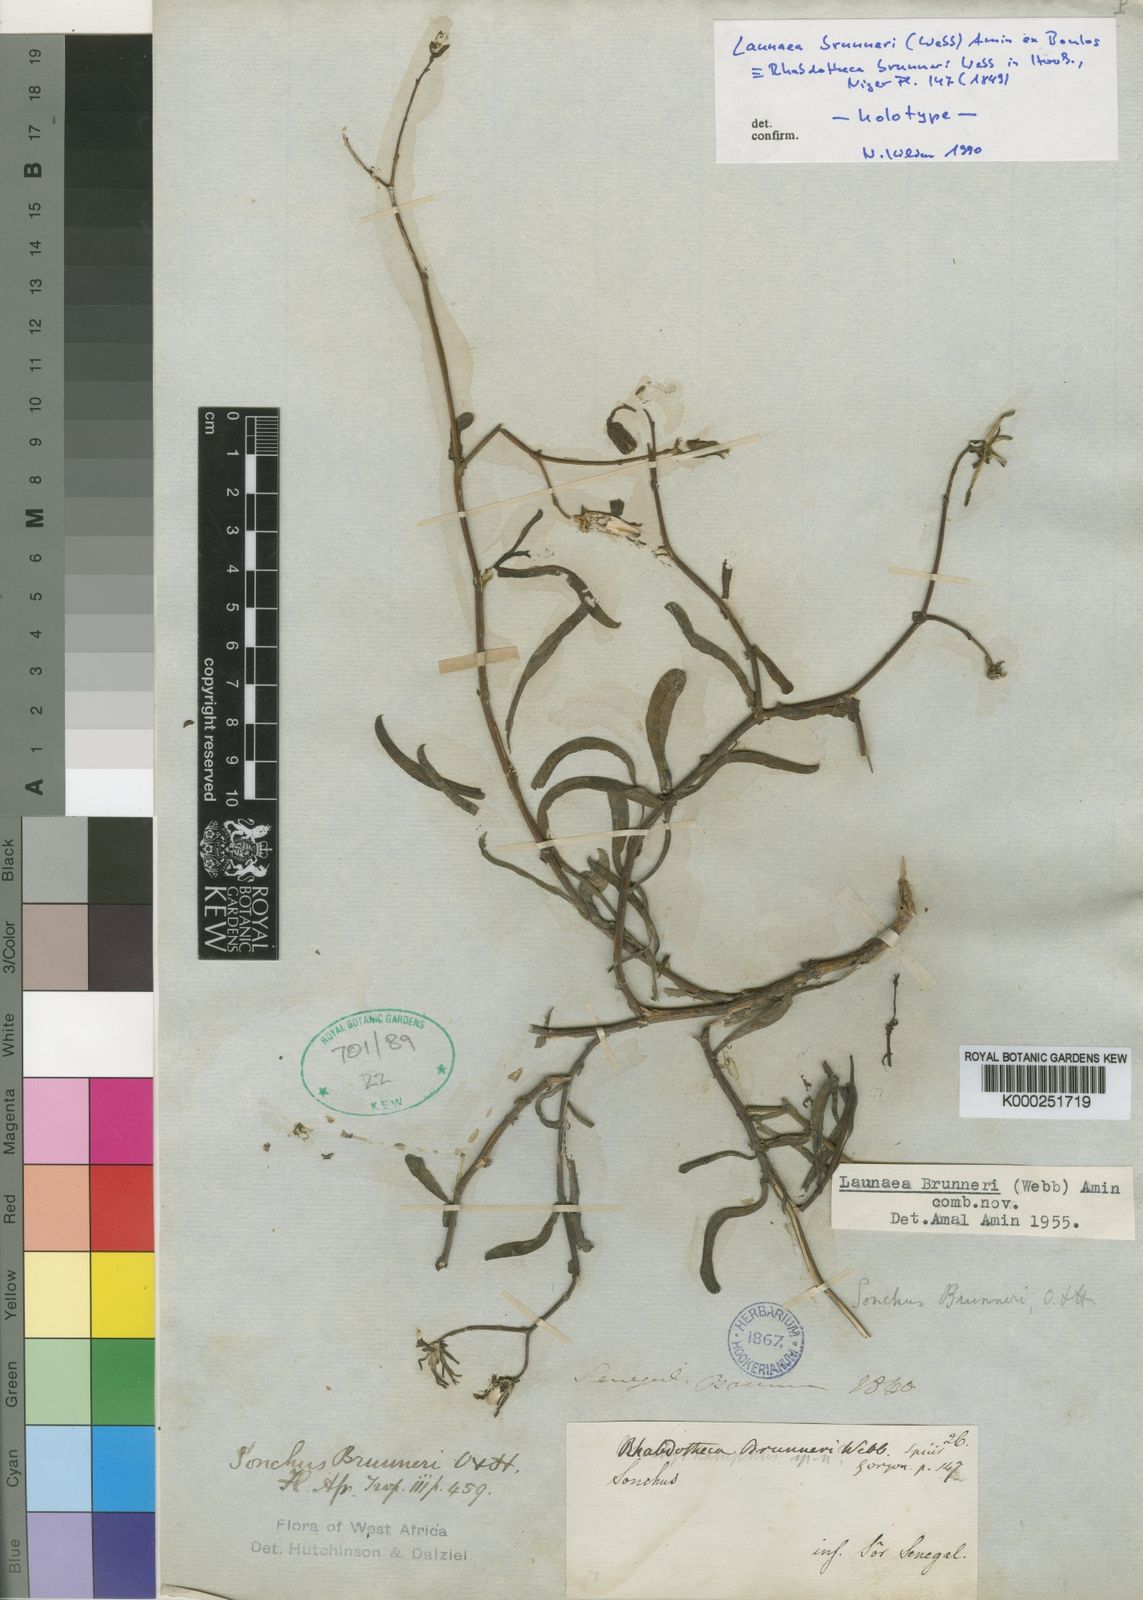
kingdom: Plantae
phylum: Tracheophyta
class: Magnoliopsida
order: Asterales
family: Asteraceae
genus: Launaea
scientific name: Launaea brunneri
